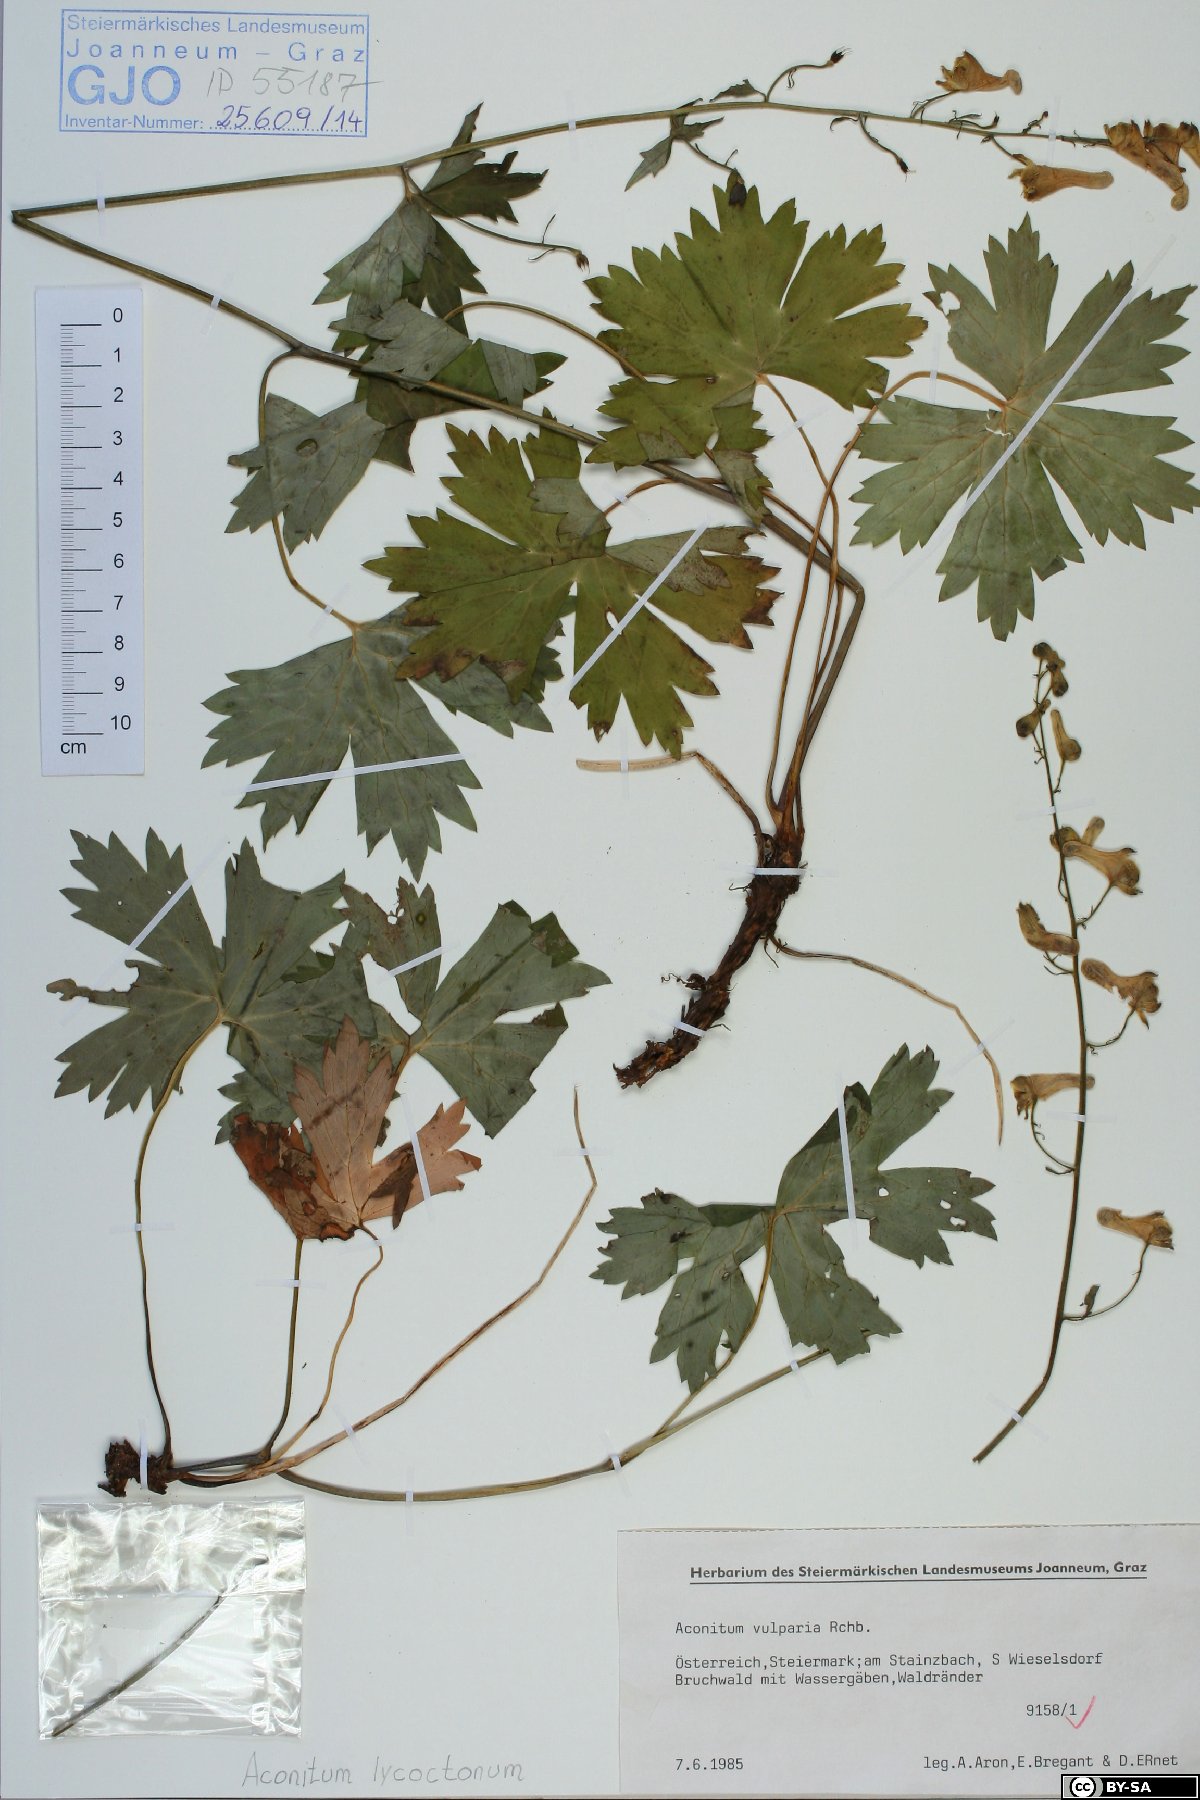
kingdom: Plantae
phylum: Tracheophyta
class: Magnoliopsida
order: Ranunculales
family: Ranunculaceae
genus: Aconitum
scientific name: Aconitum lycoctonum
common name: Wolf's-bane
